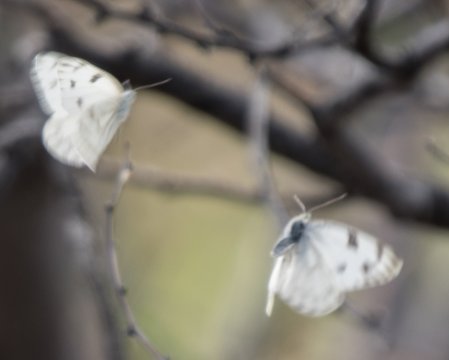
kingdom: Animalia
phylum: Arthropoda
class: Insecta
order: Lepidoptera
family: Pieridae
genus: Pontia
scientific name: Pontia sisymbrii
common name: Spring White
